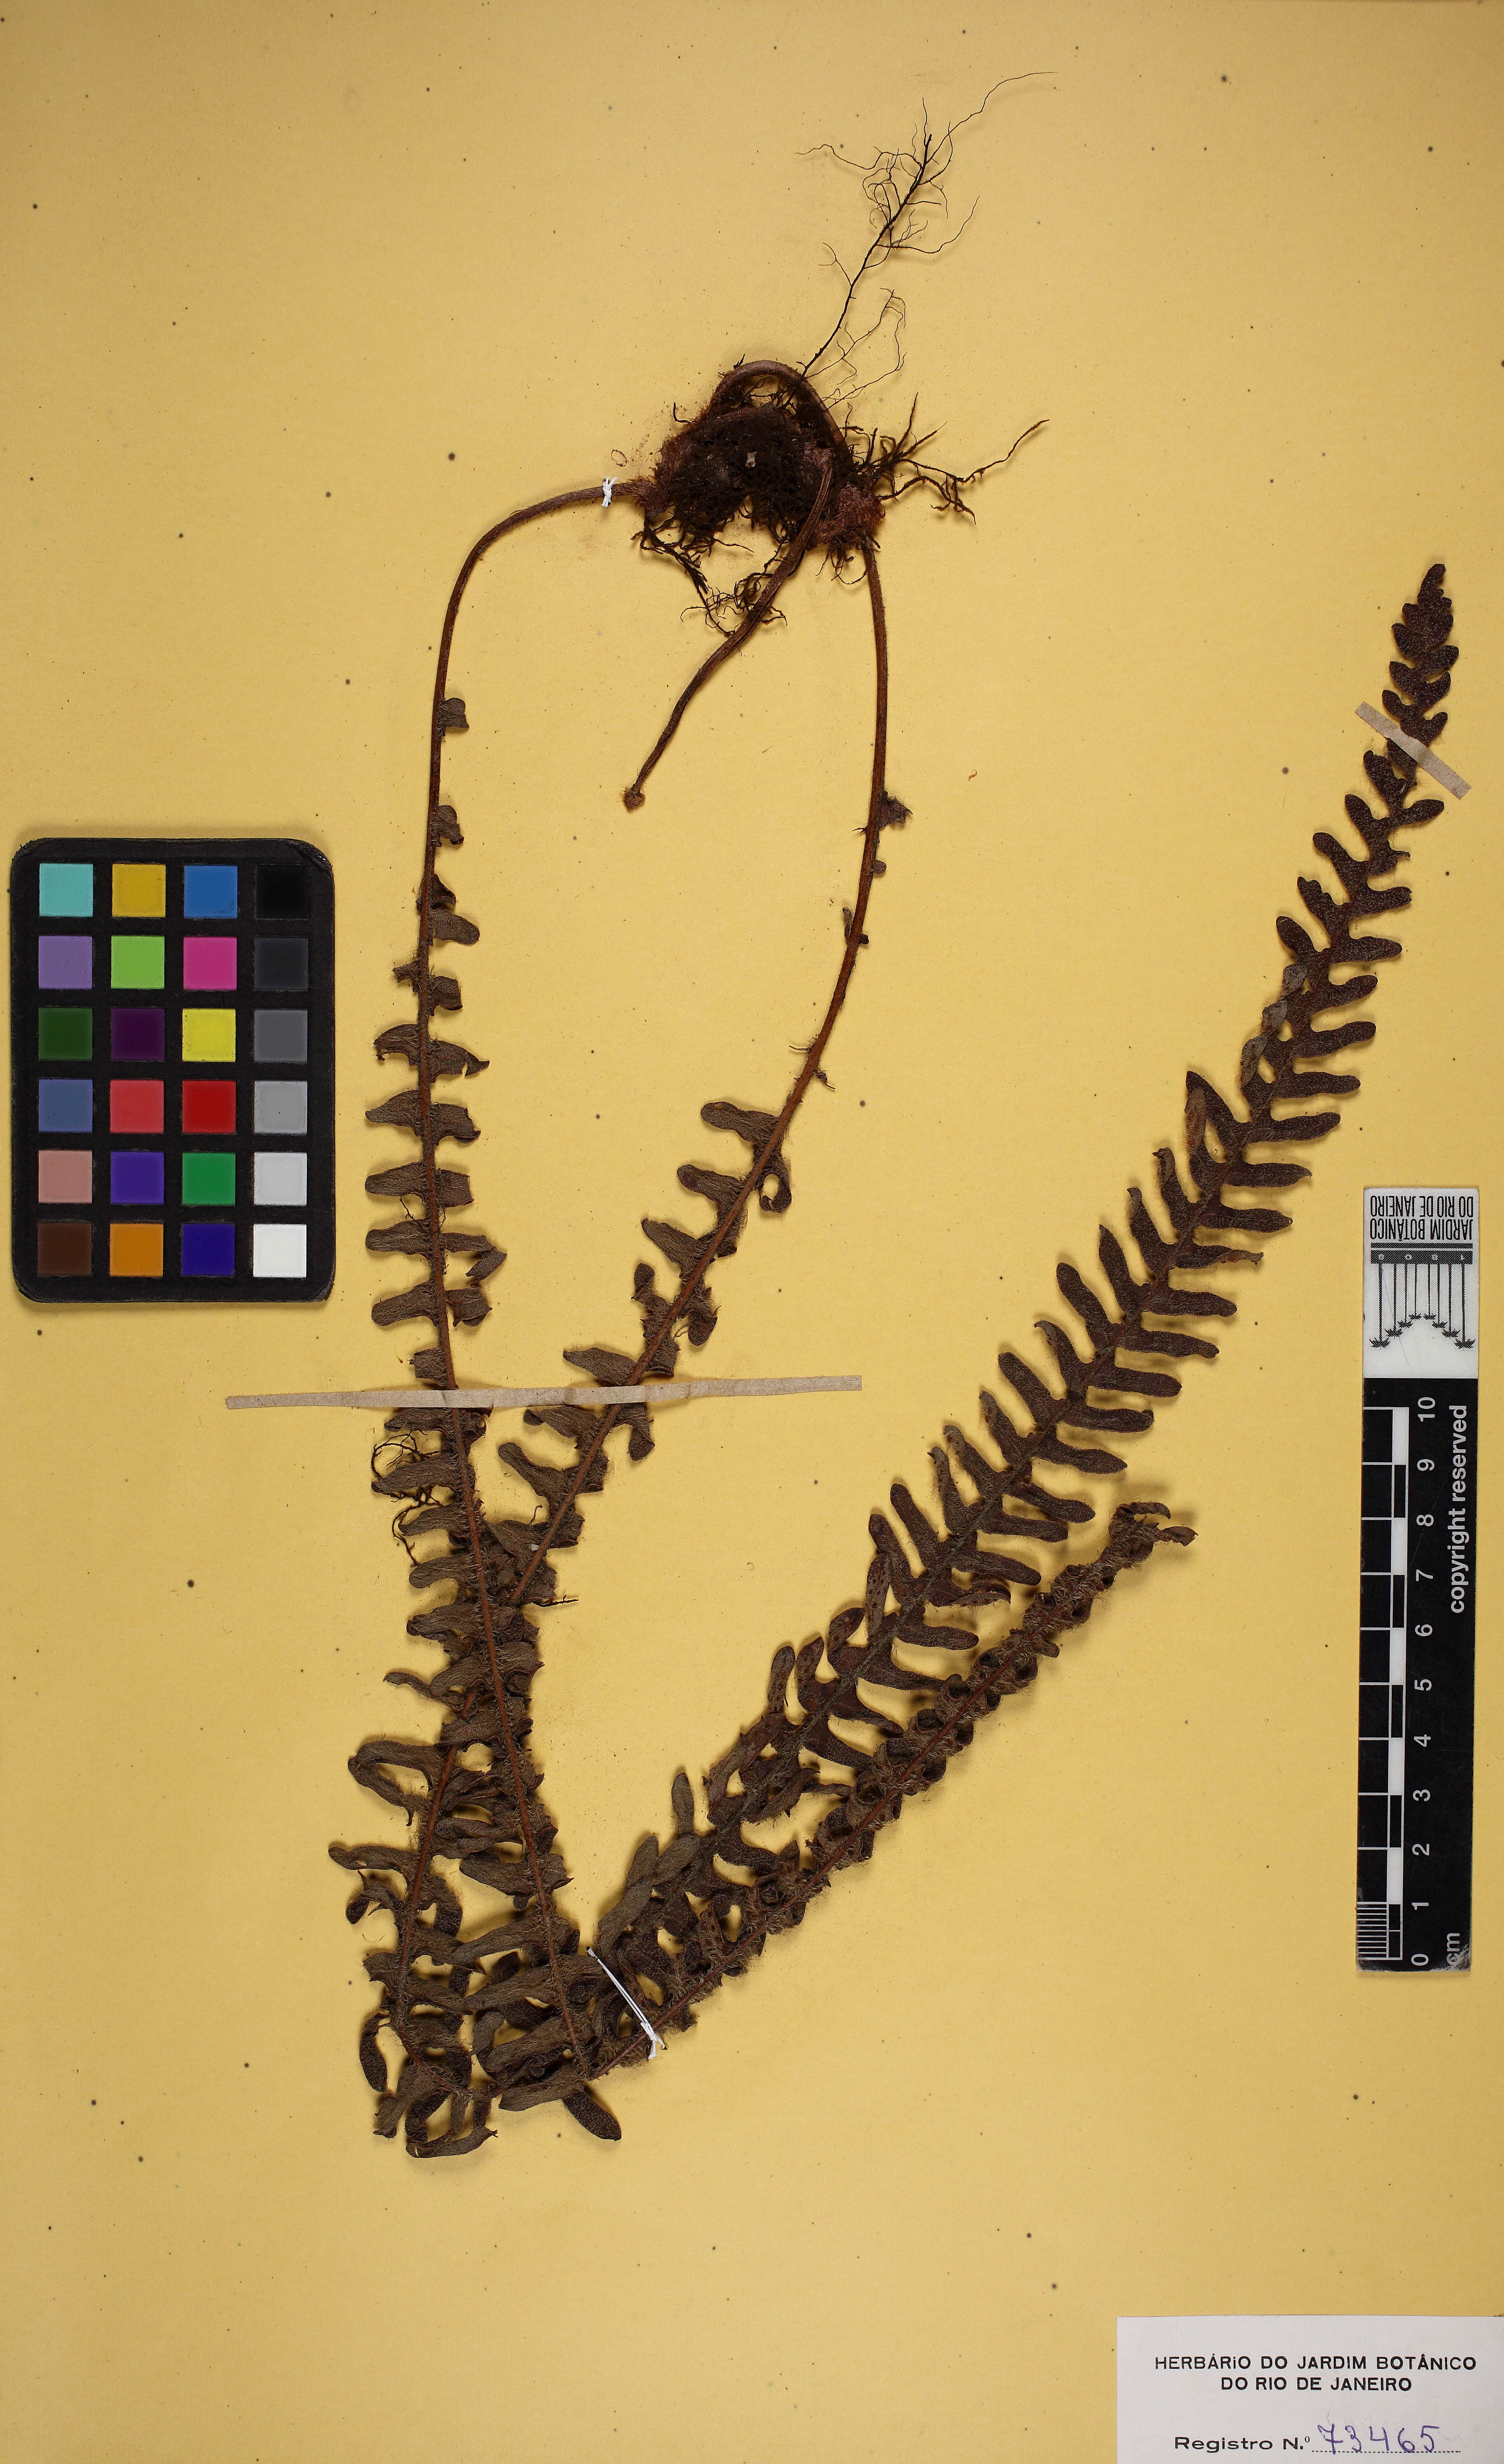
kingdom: Plantae
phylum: Tracheophyta
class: Polypodiopsida
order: Polypodiales
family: Polypodiaceae
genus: Pleopeltis
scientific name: Pleopeltis lepidopteris
